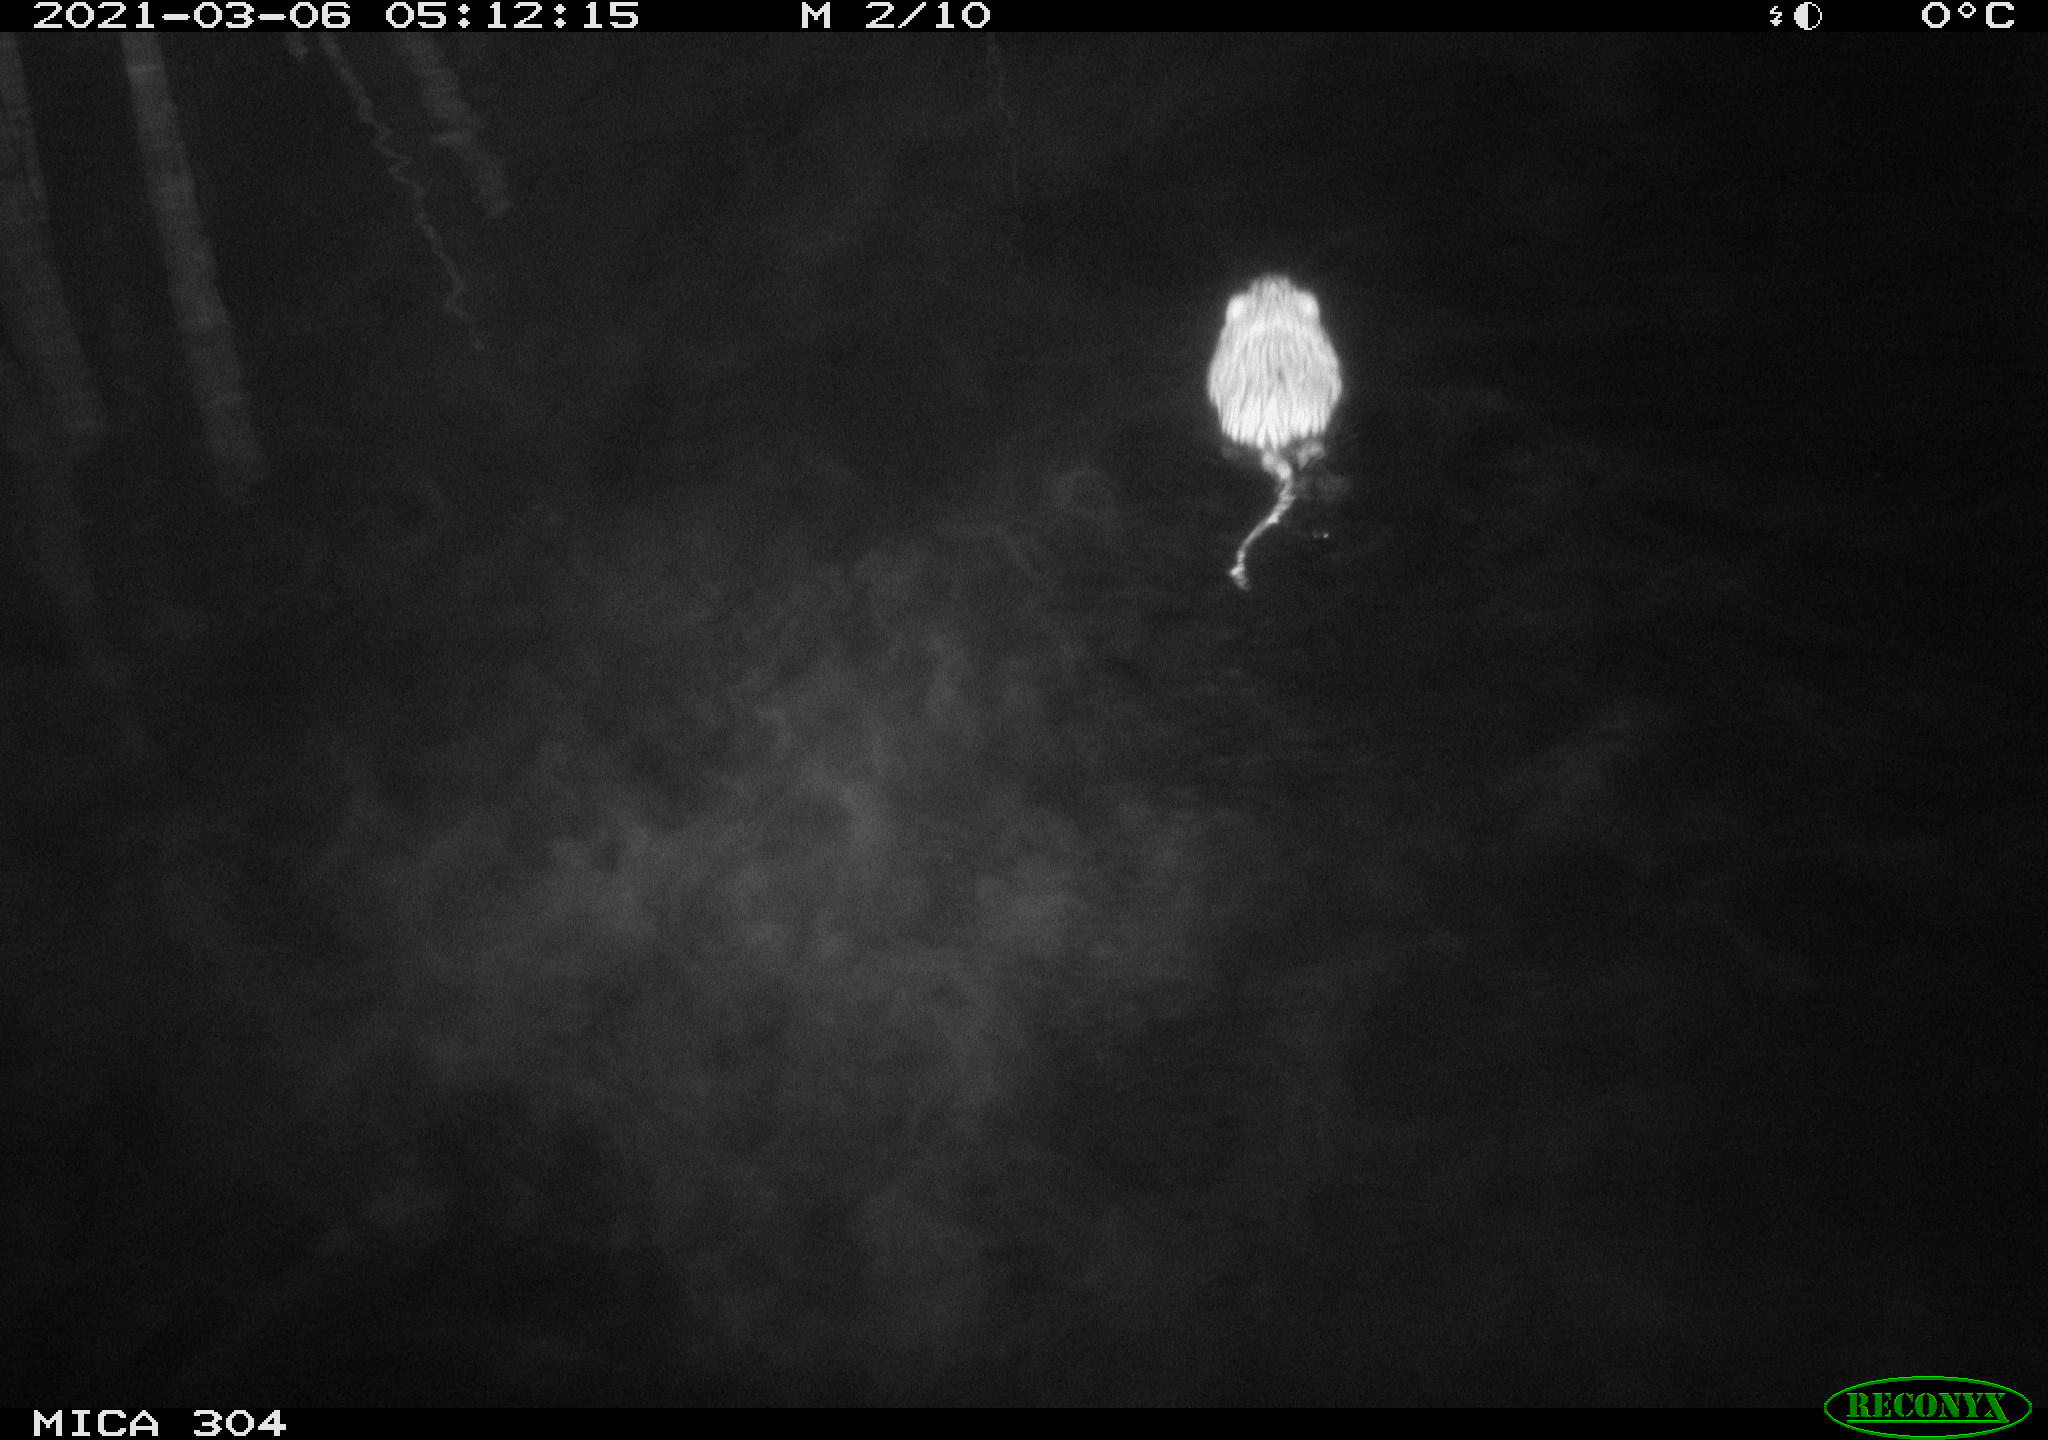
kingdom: Animalia
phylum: Chordata
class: Mammalia
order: Rodentia
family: Cricetidae
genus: Ondatra
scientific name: Ondatra zibethicus
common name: Muskrat
